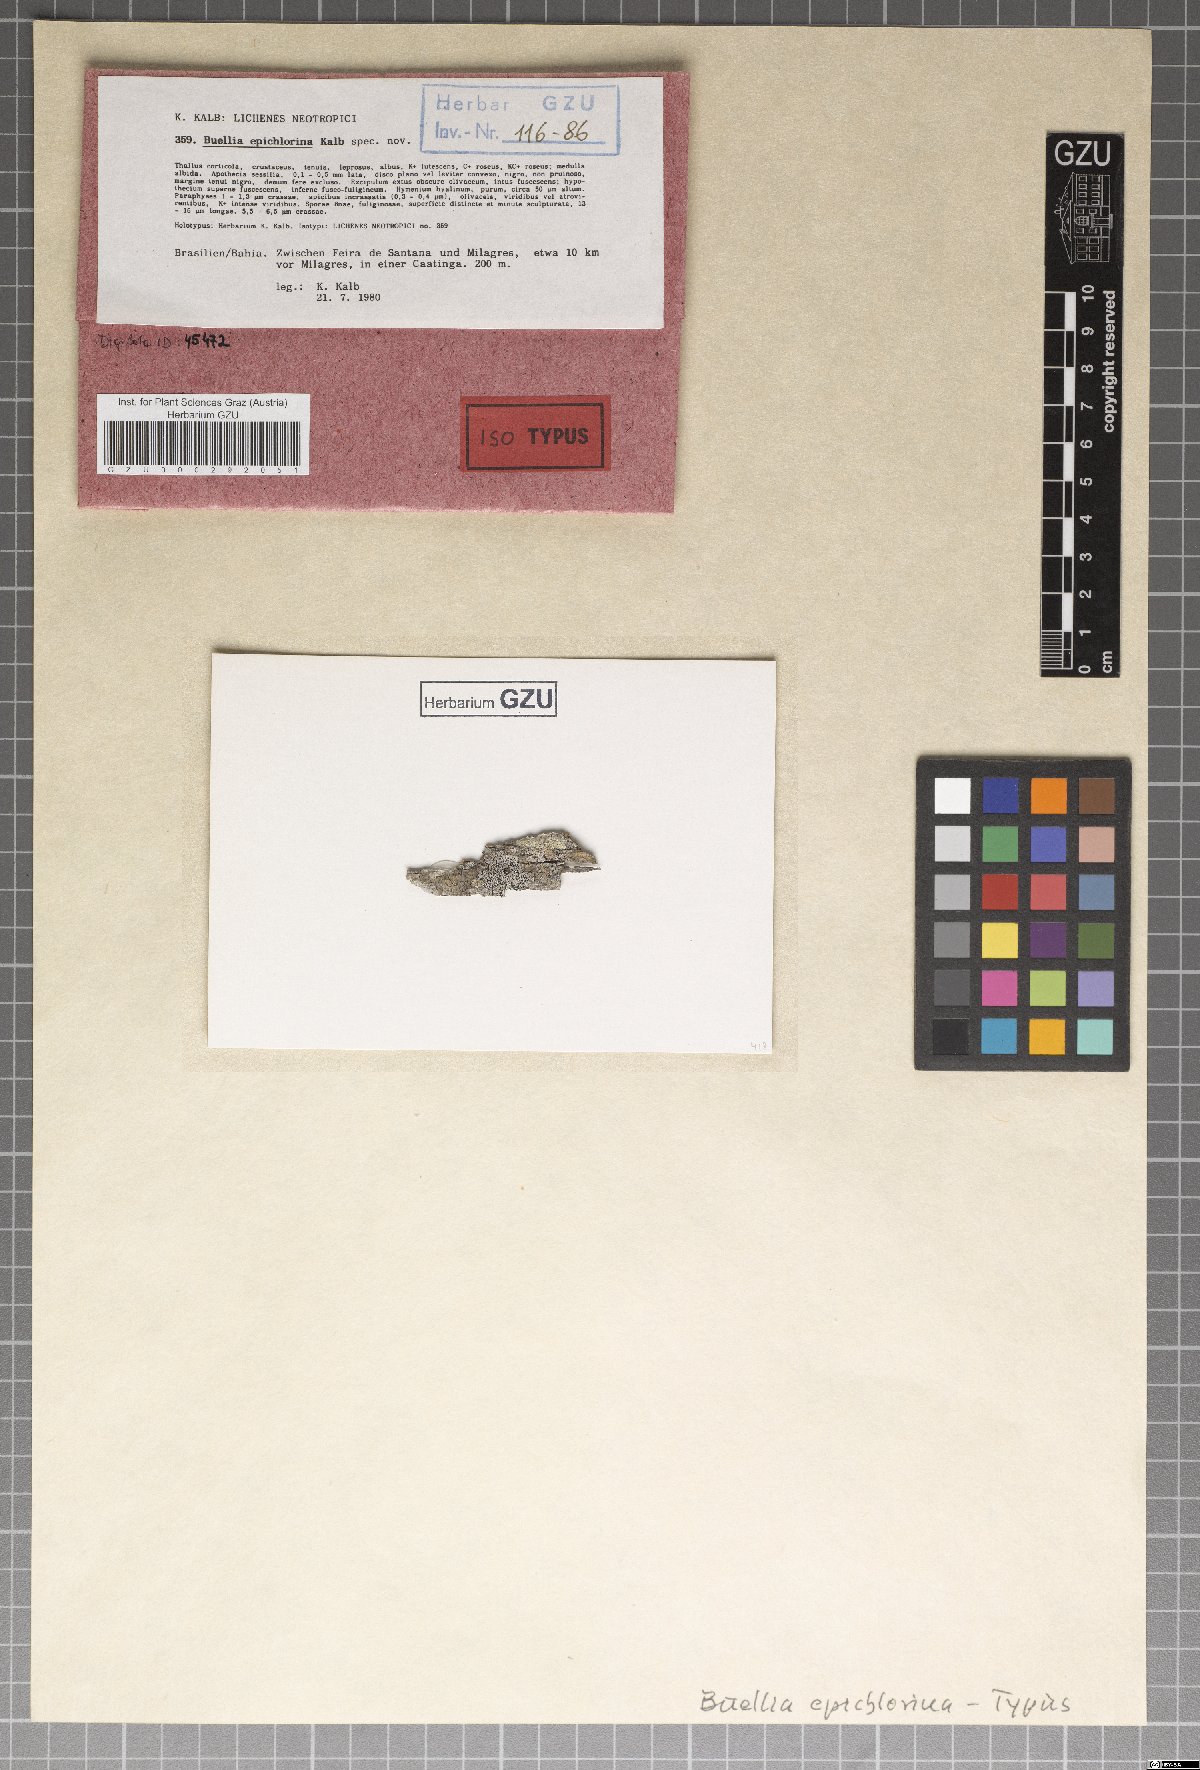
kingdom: Fungi
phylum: Ascomycota
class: Lecanoromycetes
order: Caliciales
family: Caliciaceae
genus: Buellia
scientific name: Buellia epichlorina
